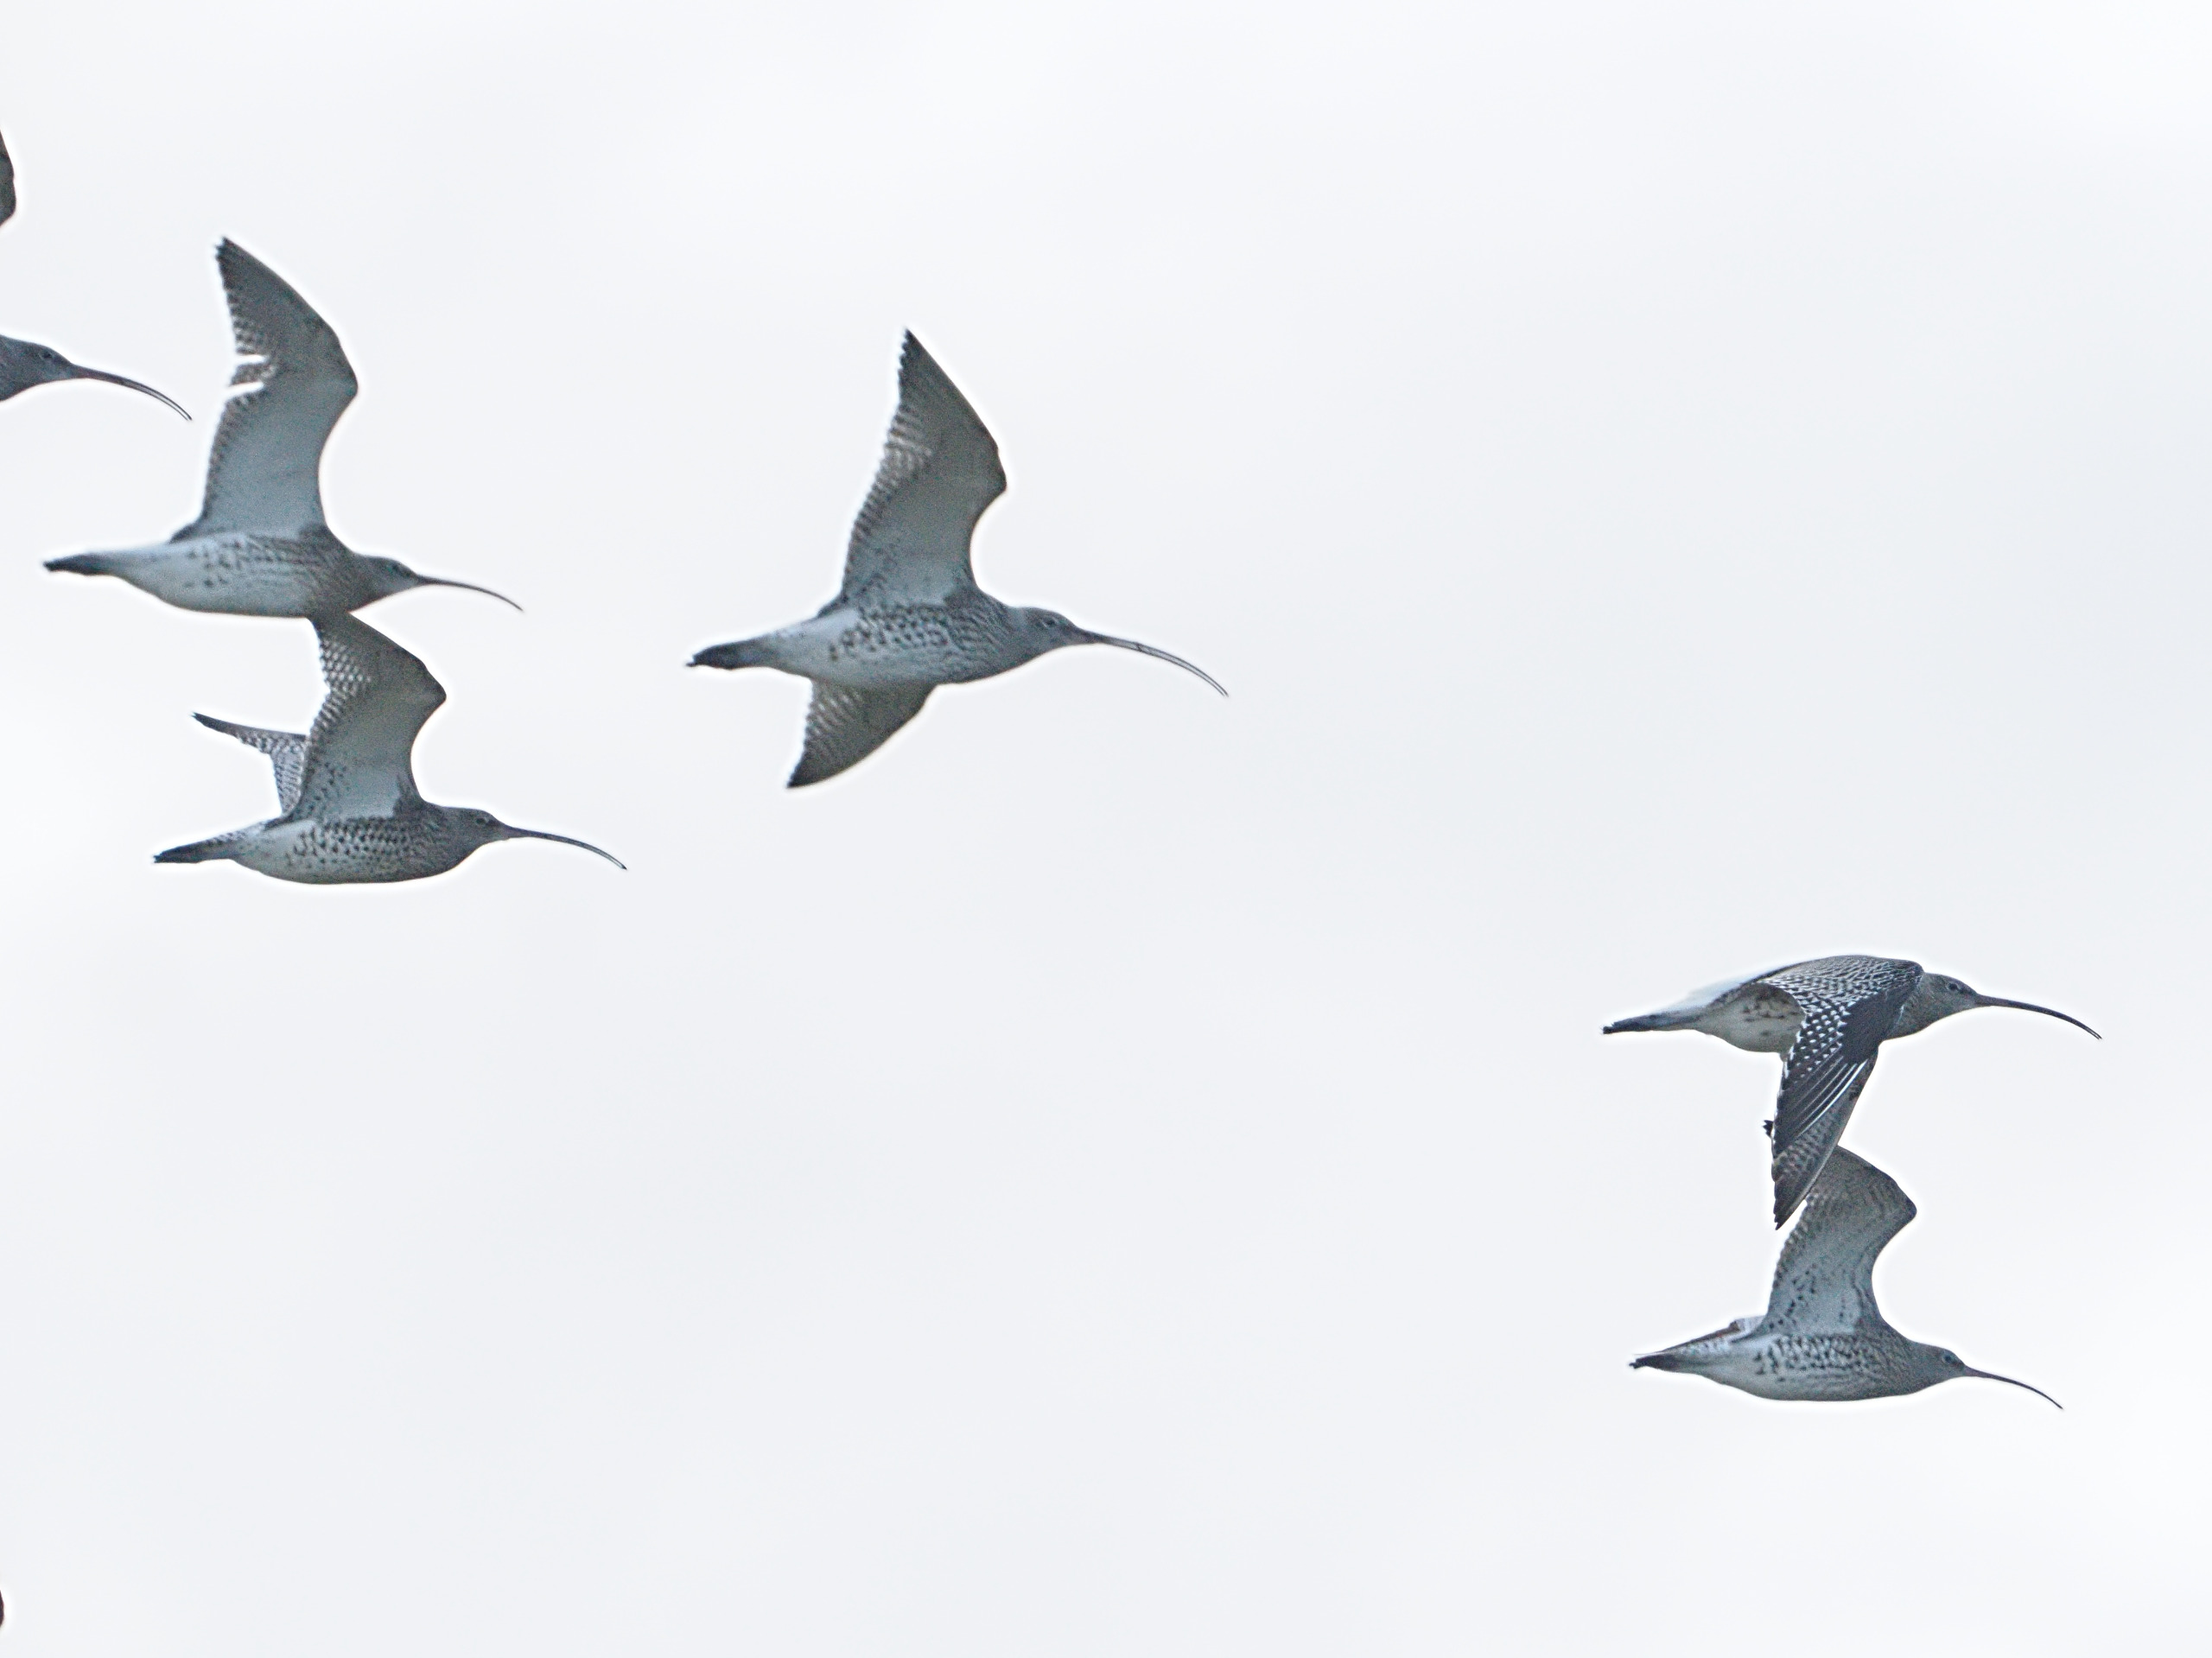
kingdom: Animalia
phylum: Chordata
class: Aves
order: Charadriiformes
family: Scolopacidae
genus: Numenius
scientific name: Numenius arquata
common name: Storspove
